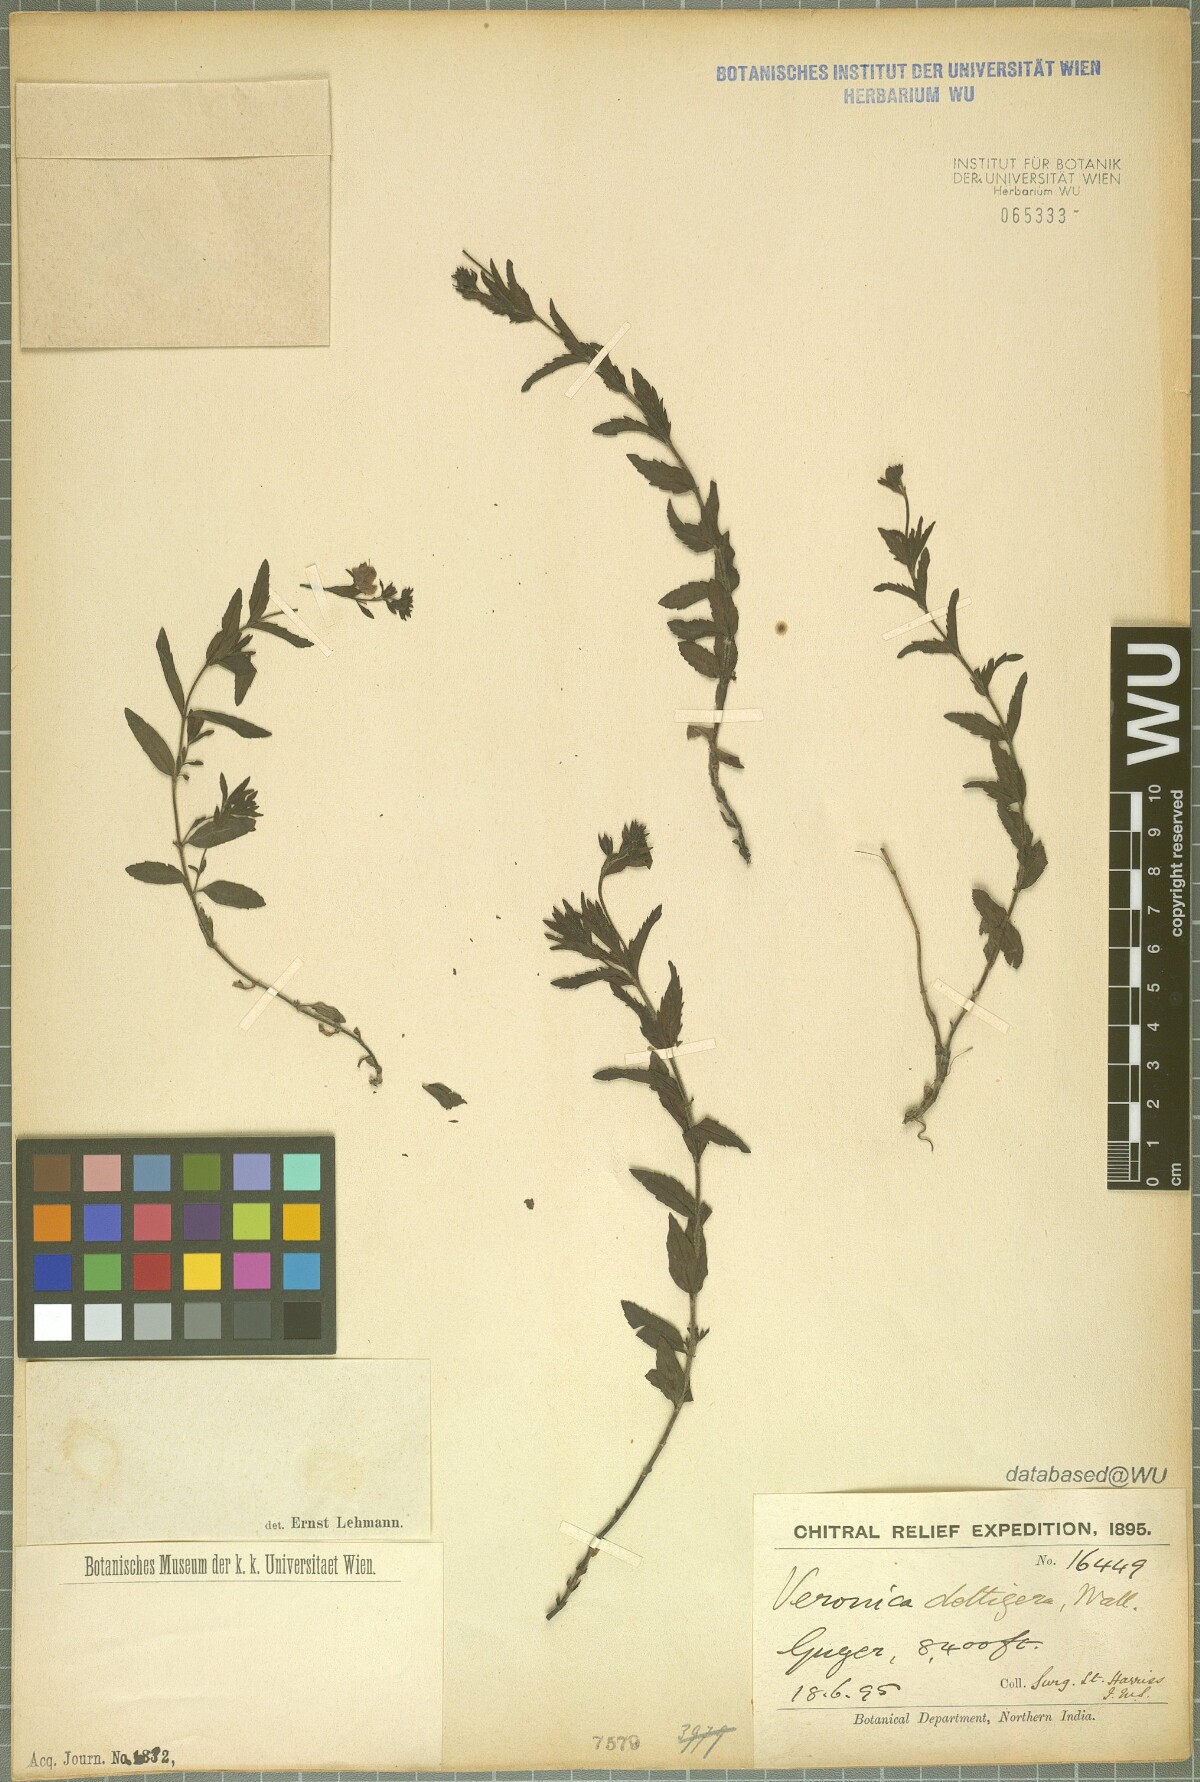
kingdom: Plantae
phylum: Tracheophyta
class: Magnoliopsida
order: Lamiales
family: Plantaginaceae
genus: Veronica
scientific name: Veronica deltigera
